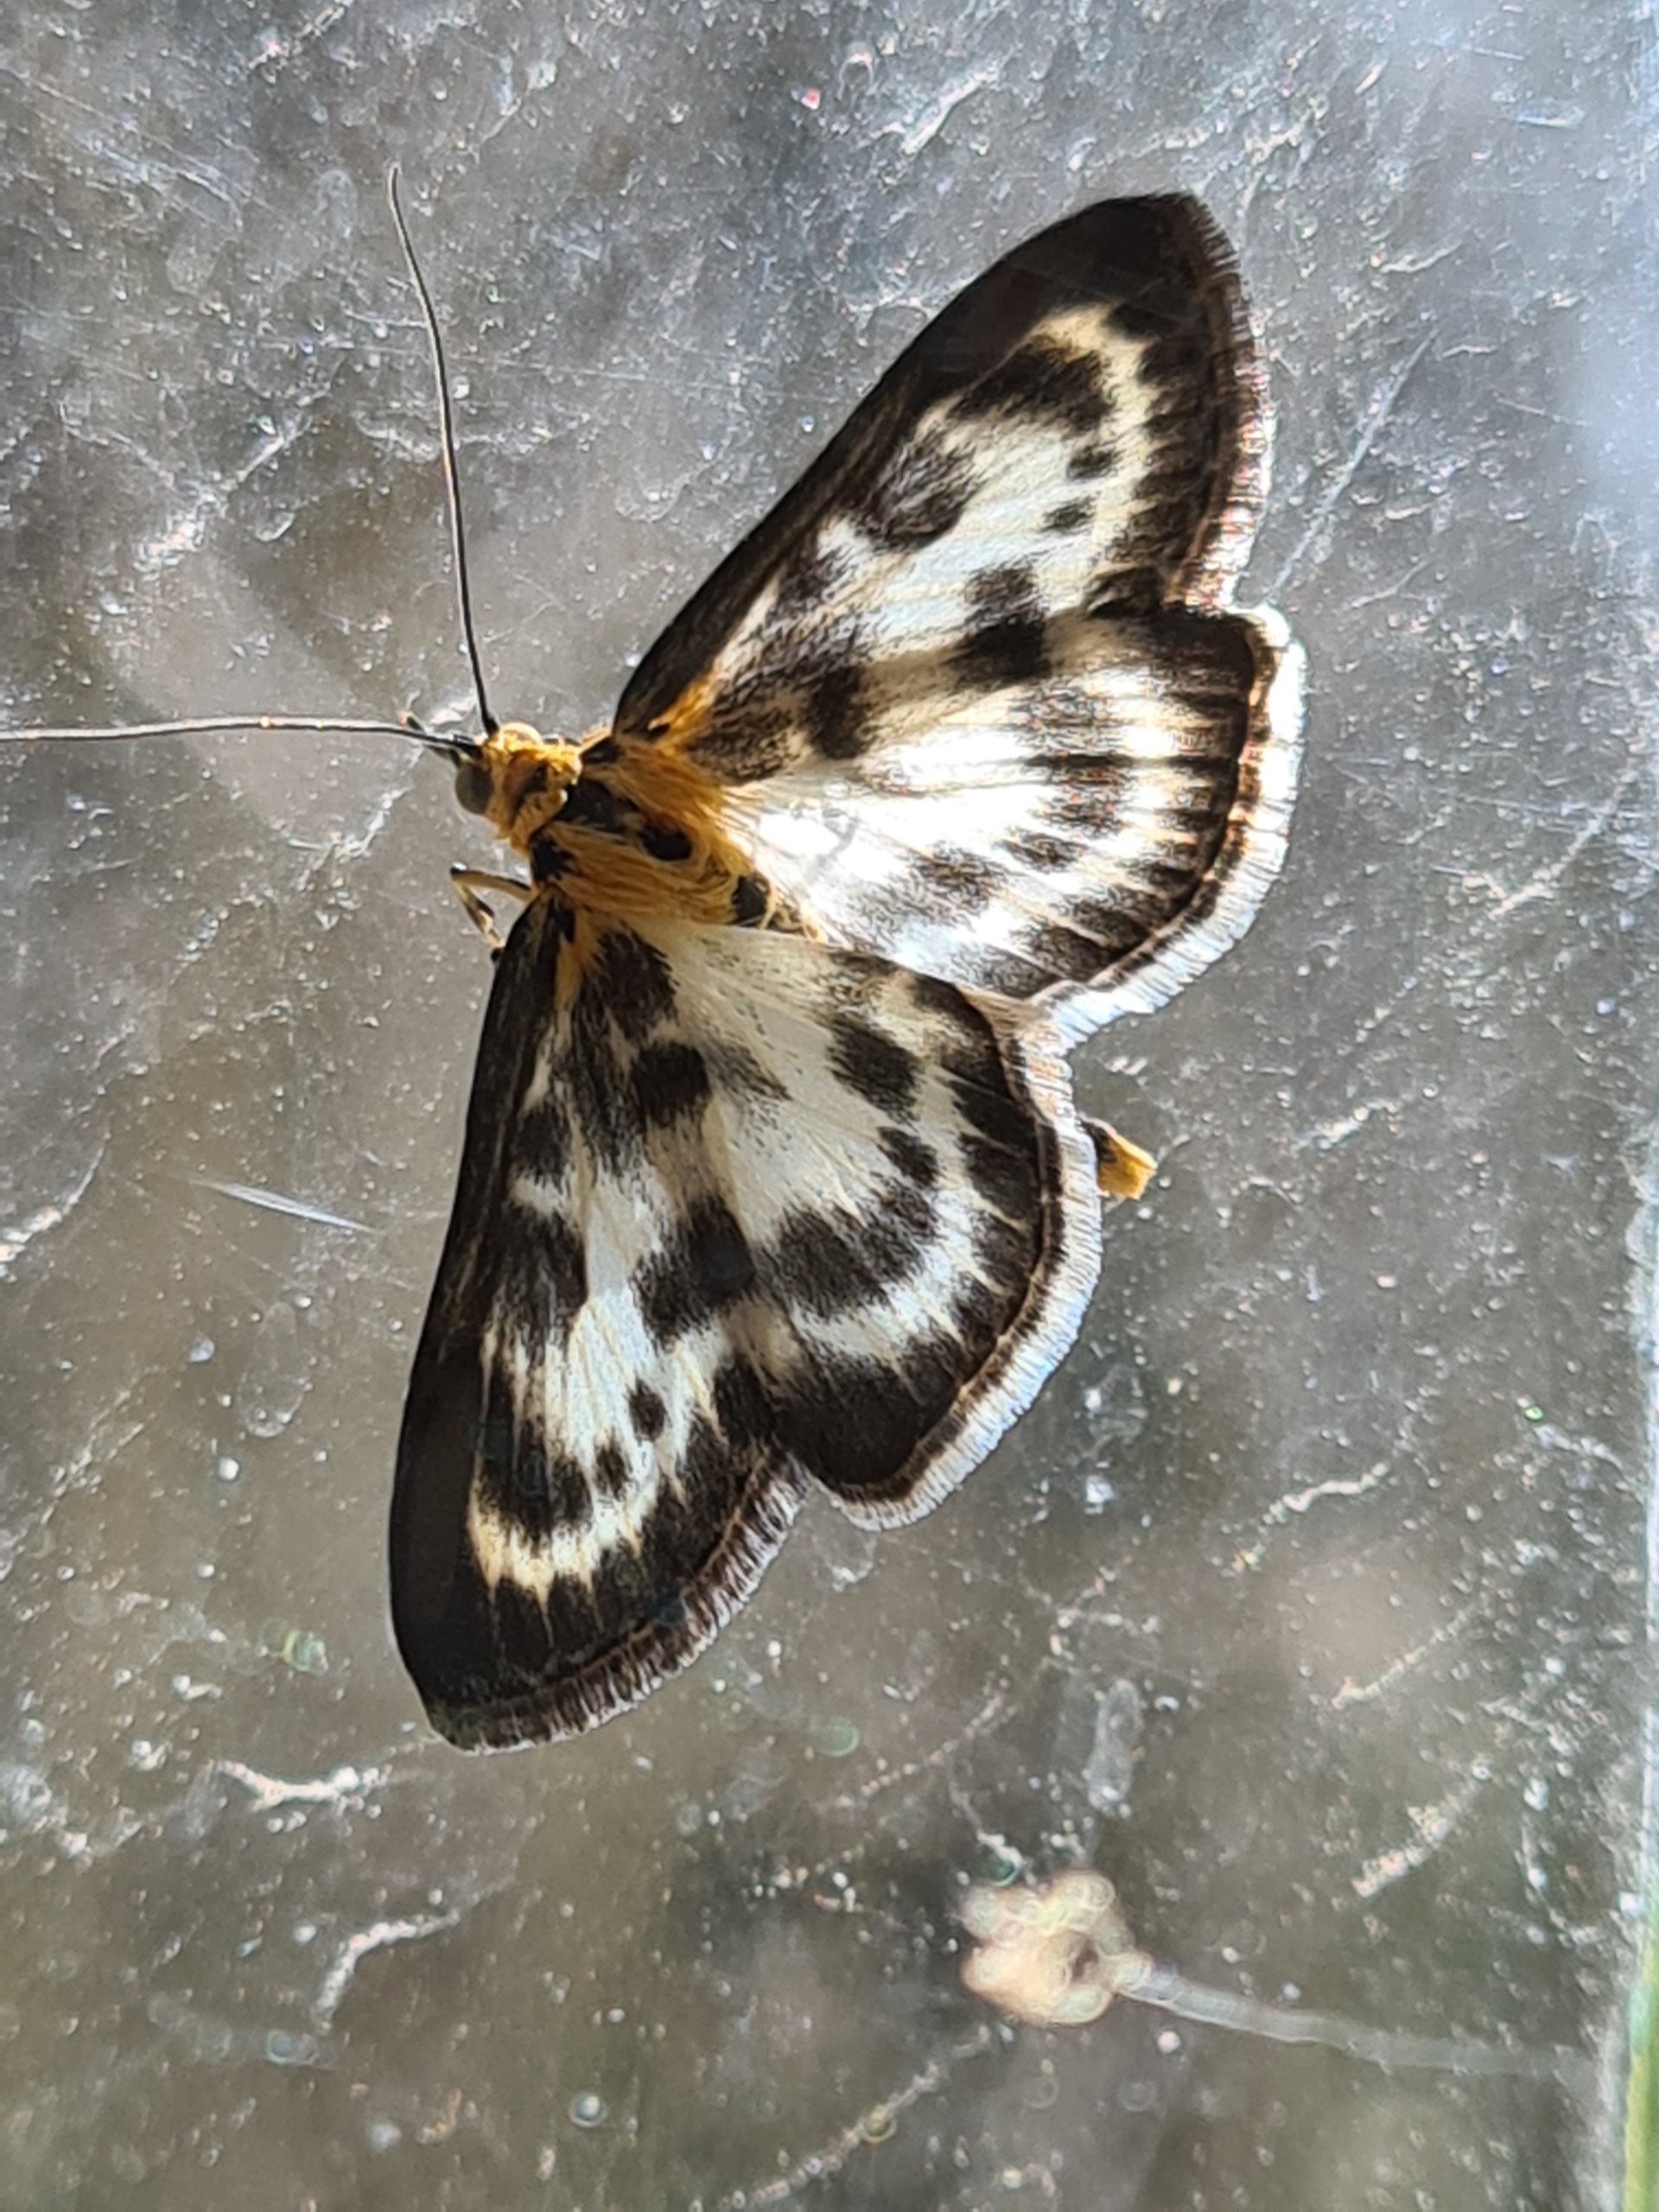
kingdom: Animalia
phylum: Arthropoda
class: Insecta
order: Lepidoptera
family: Crambidae
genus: Anania
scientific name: Anania hortulata
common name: Nældehalvmøl
